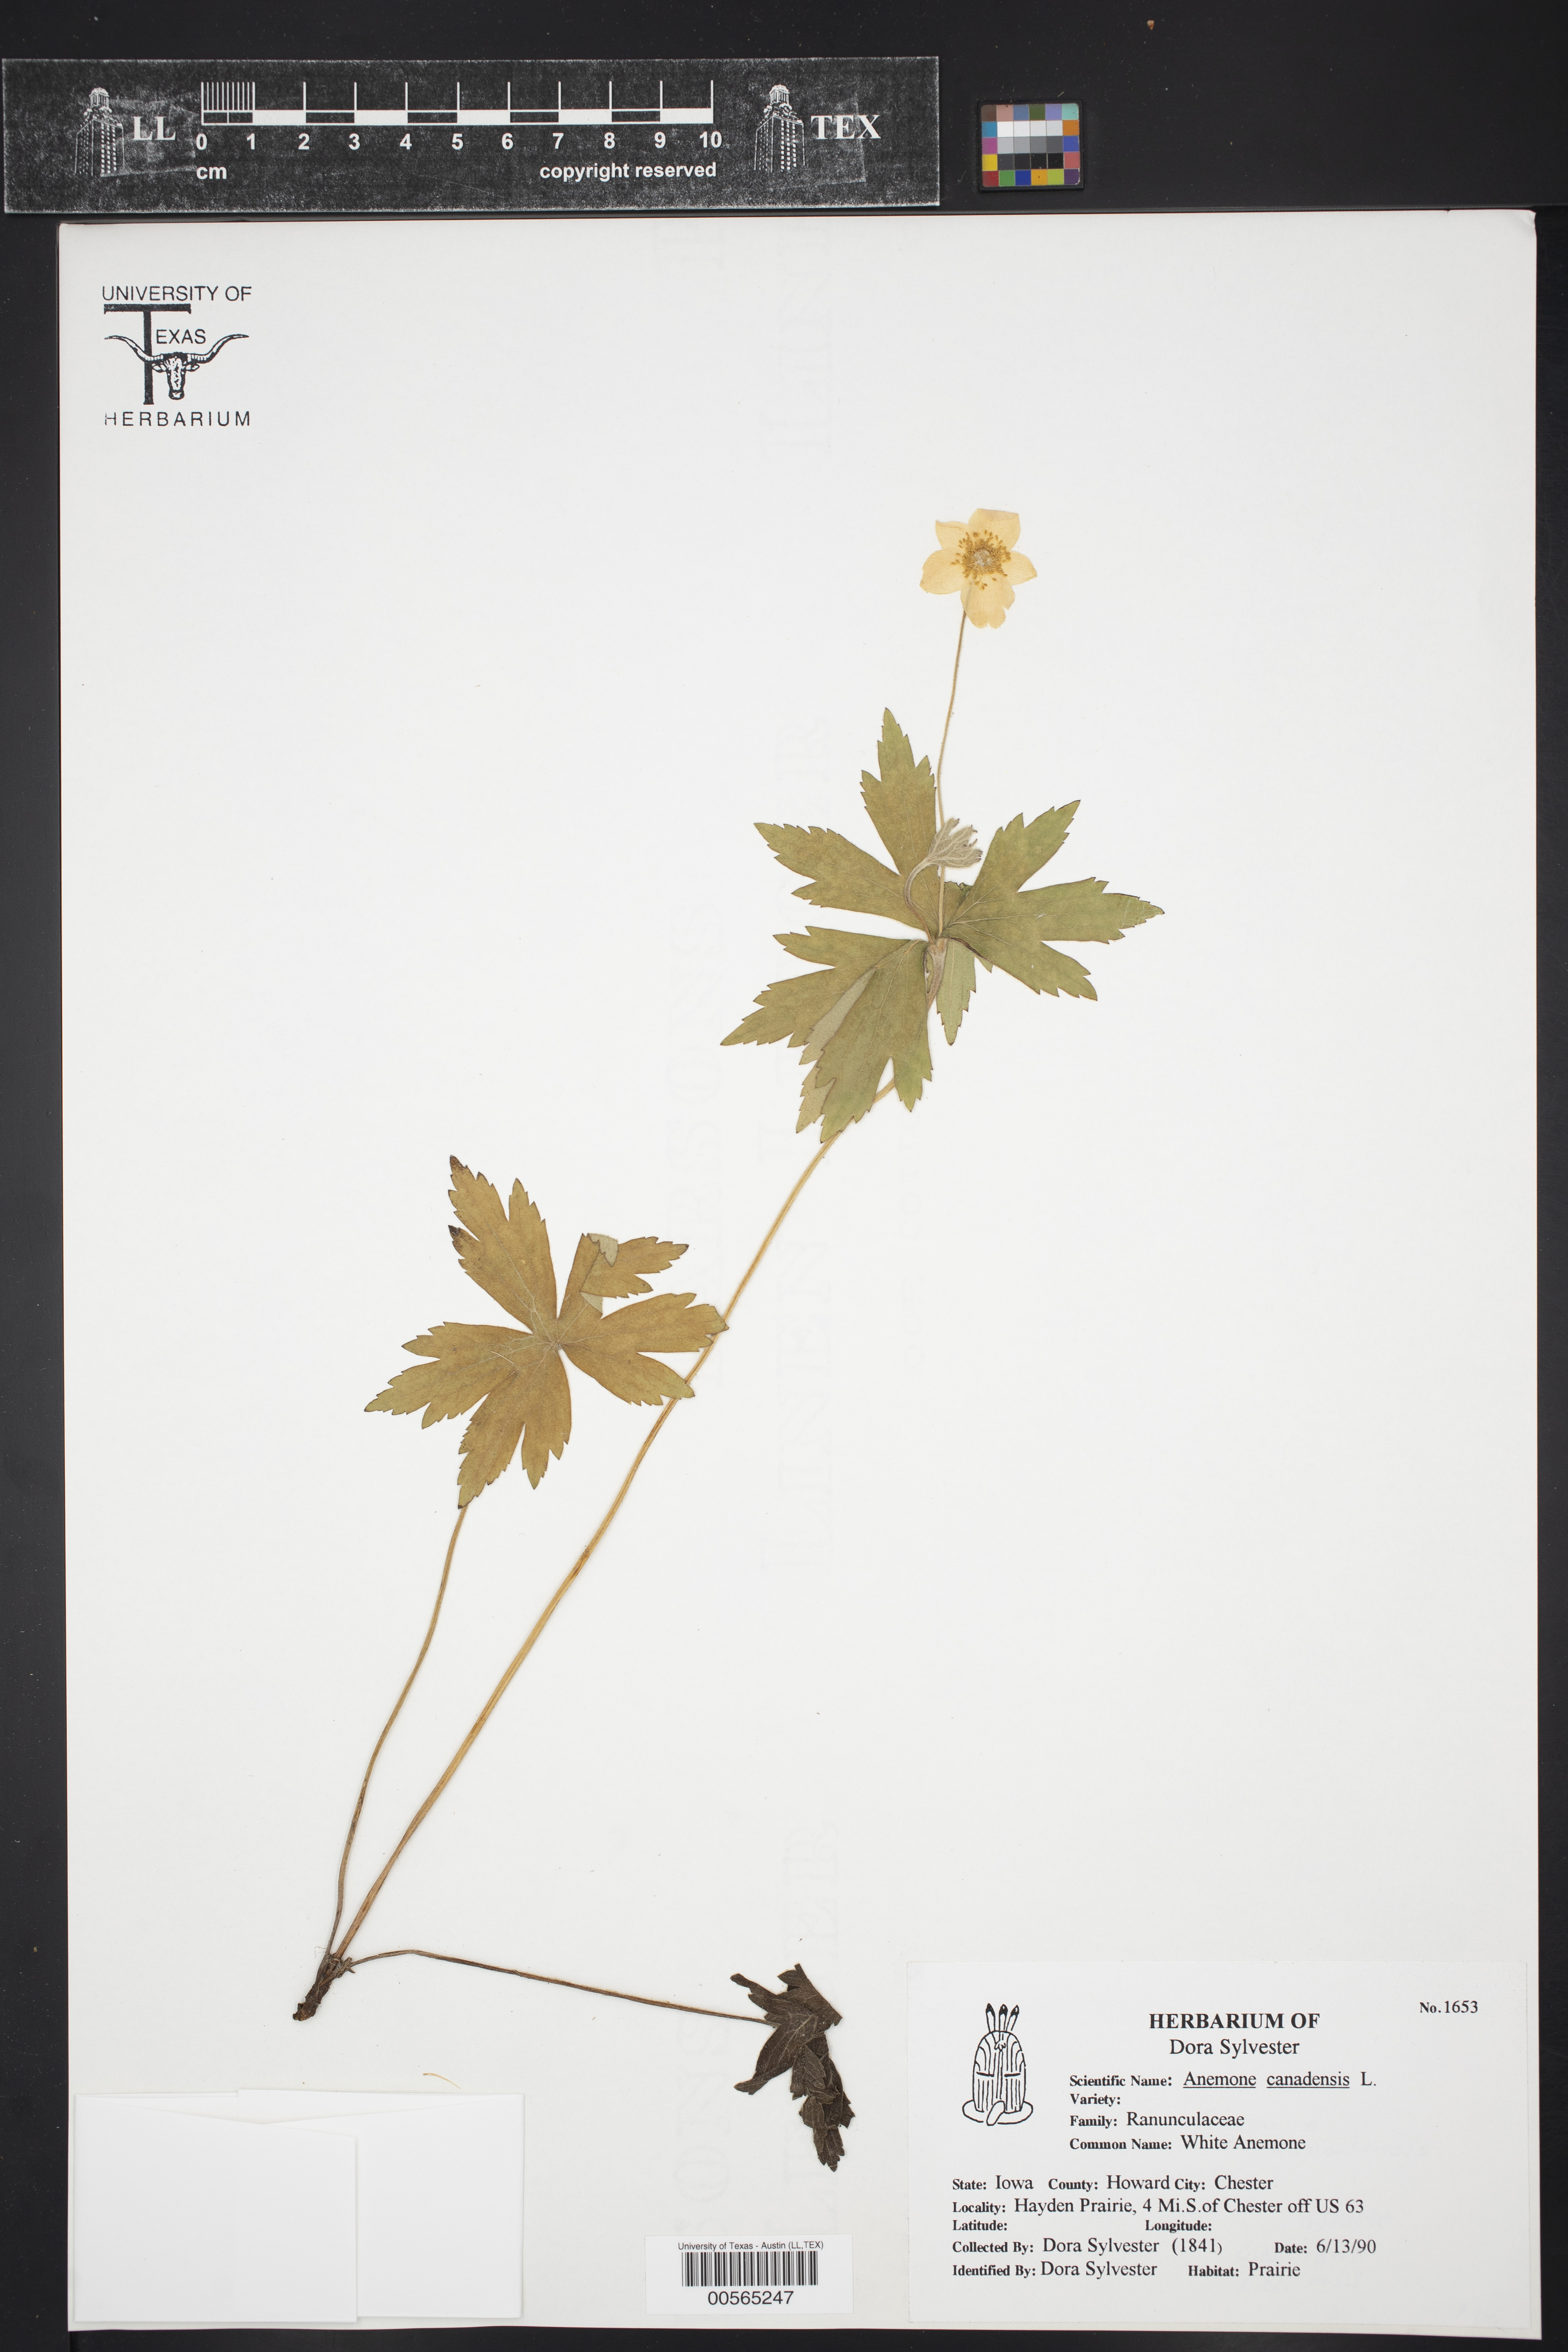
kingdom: Plantae
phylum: Tracheophyta
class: Magnoliopsida
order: Ranunculales
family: Ranunculaceae
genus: Anemonastrum
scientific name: Anemonastrum canadense
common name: Canada anemone
